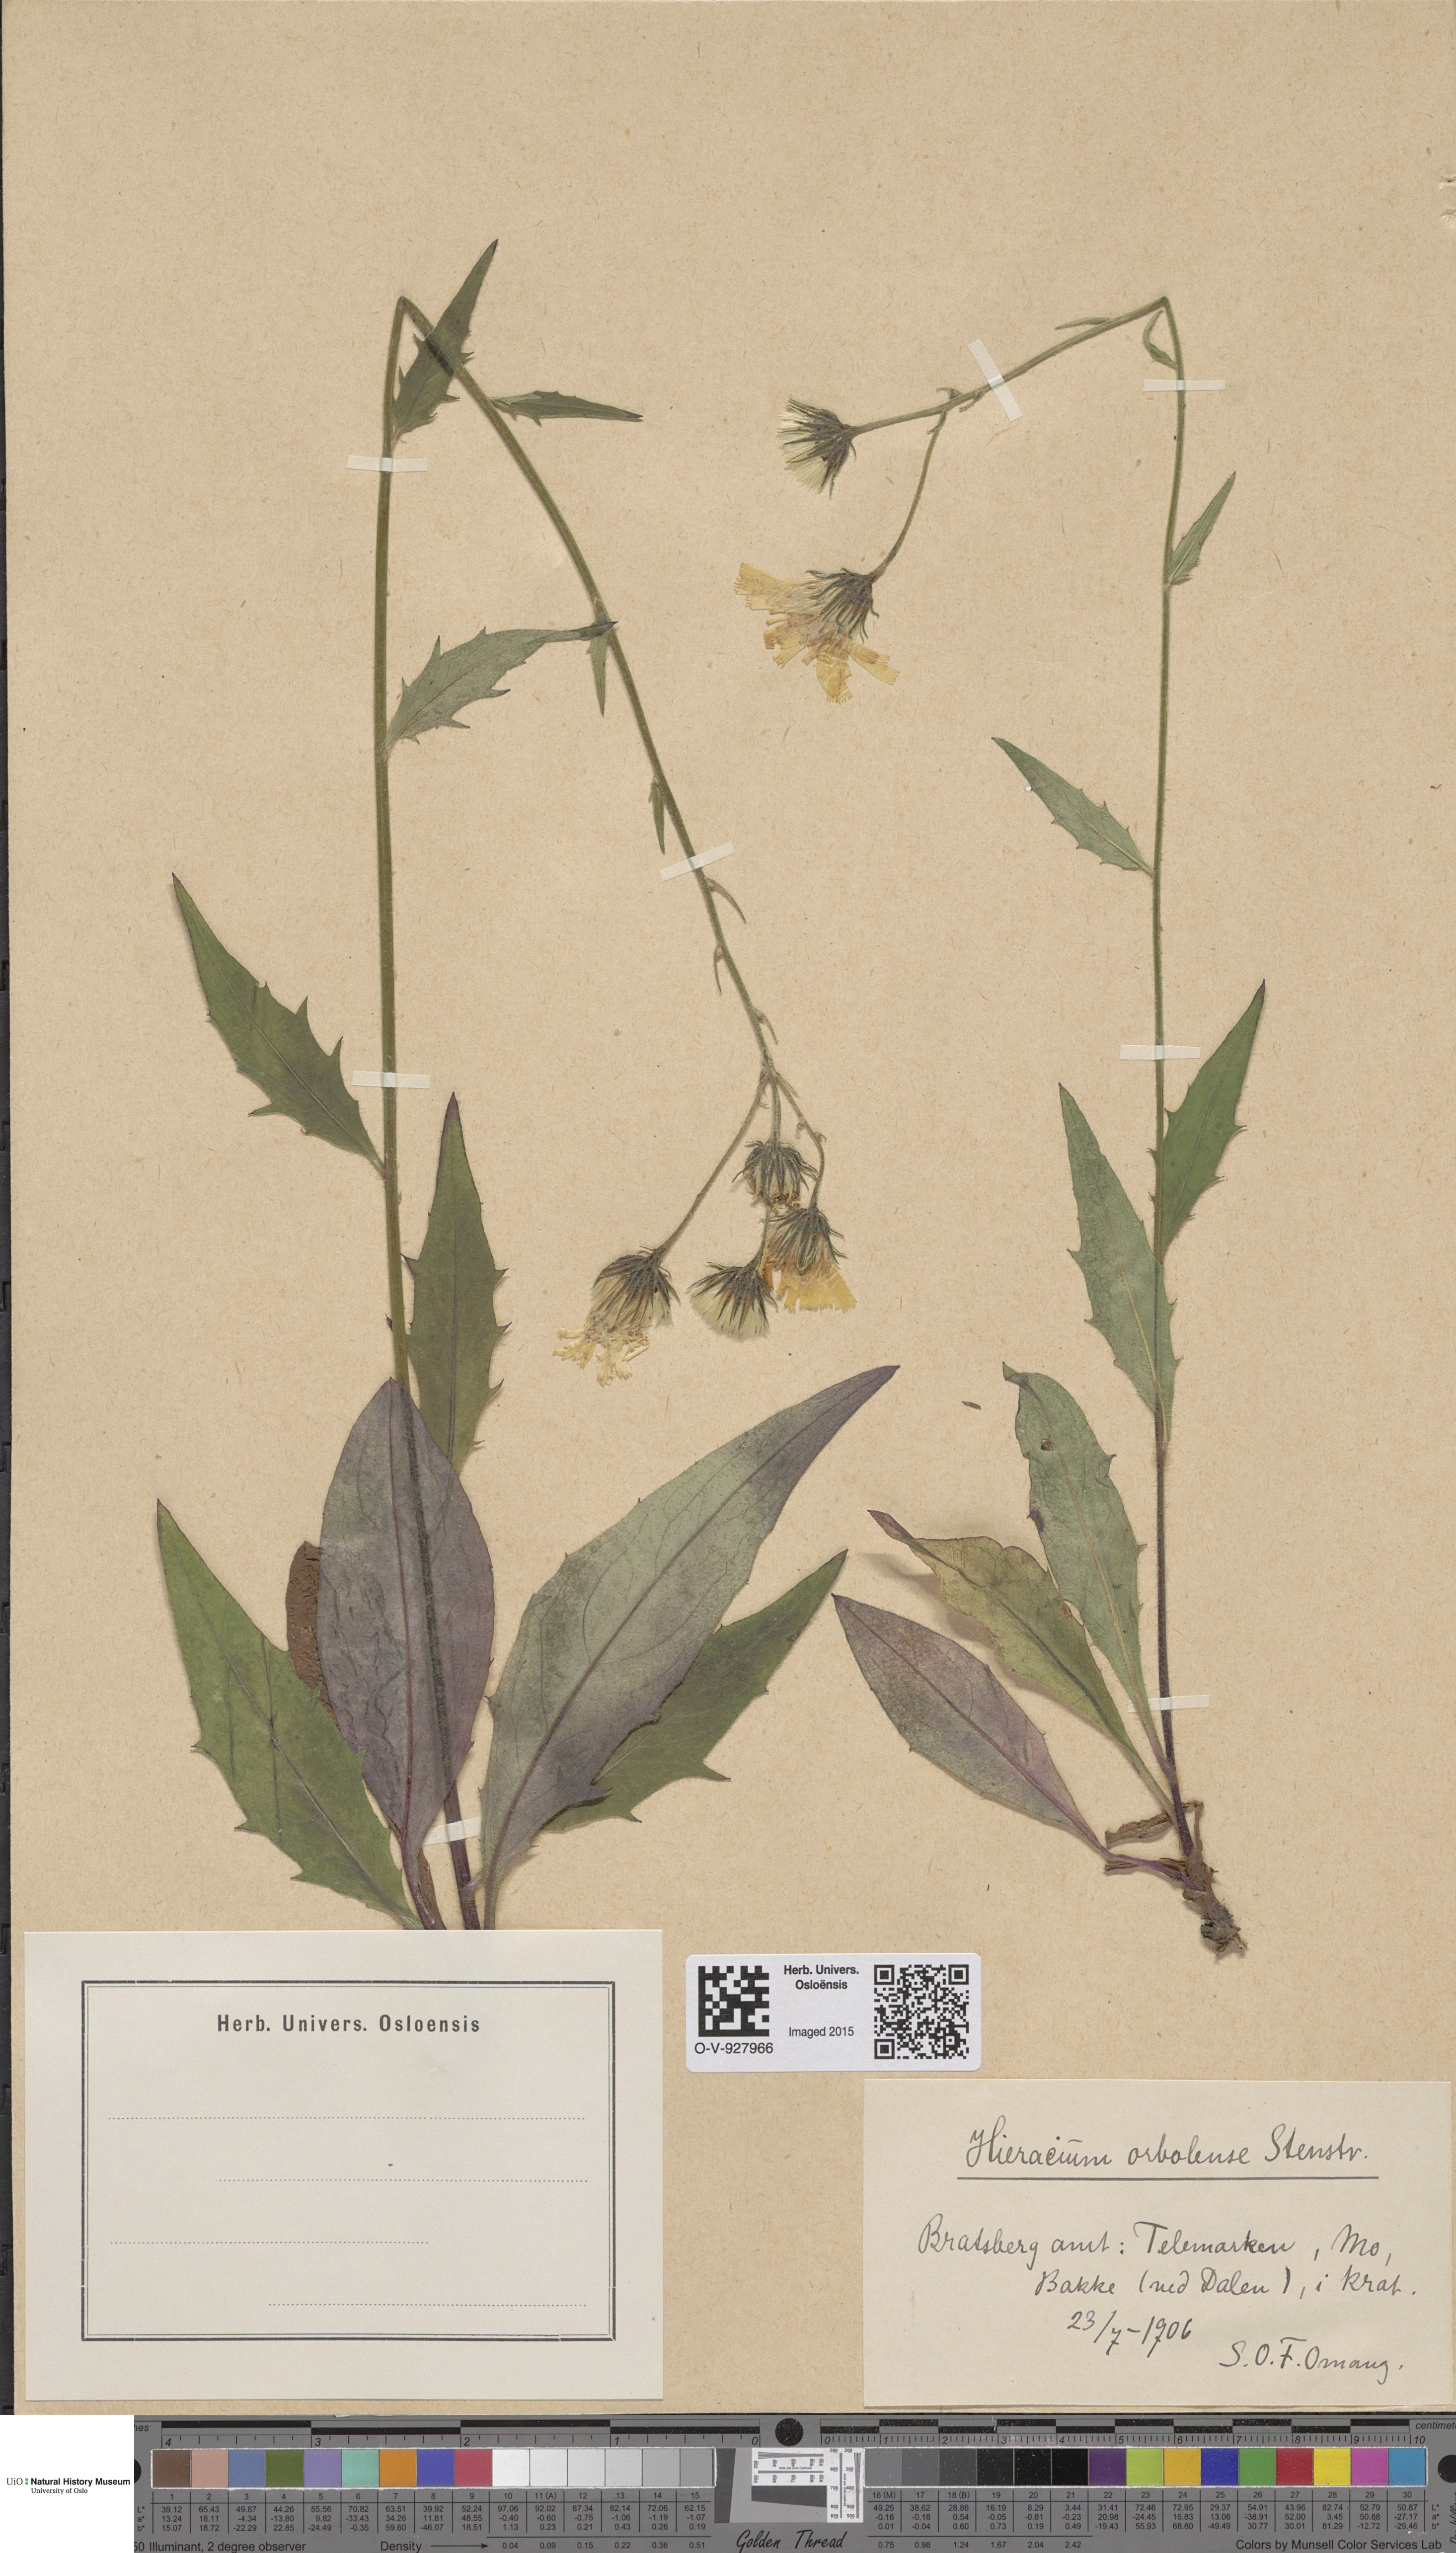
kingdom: Plantae
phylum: Tracheophyta
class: Magnoliopsida
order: Asterales
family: Asteraceae
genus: Hieracium
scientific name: Hieracium orbolense
